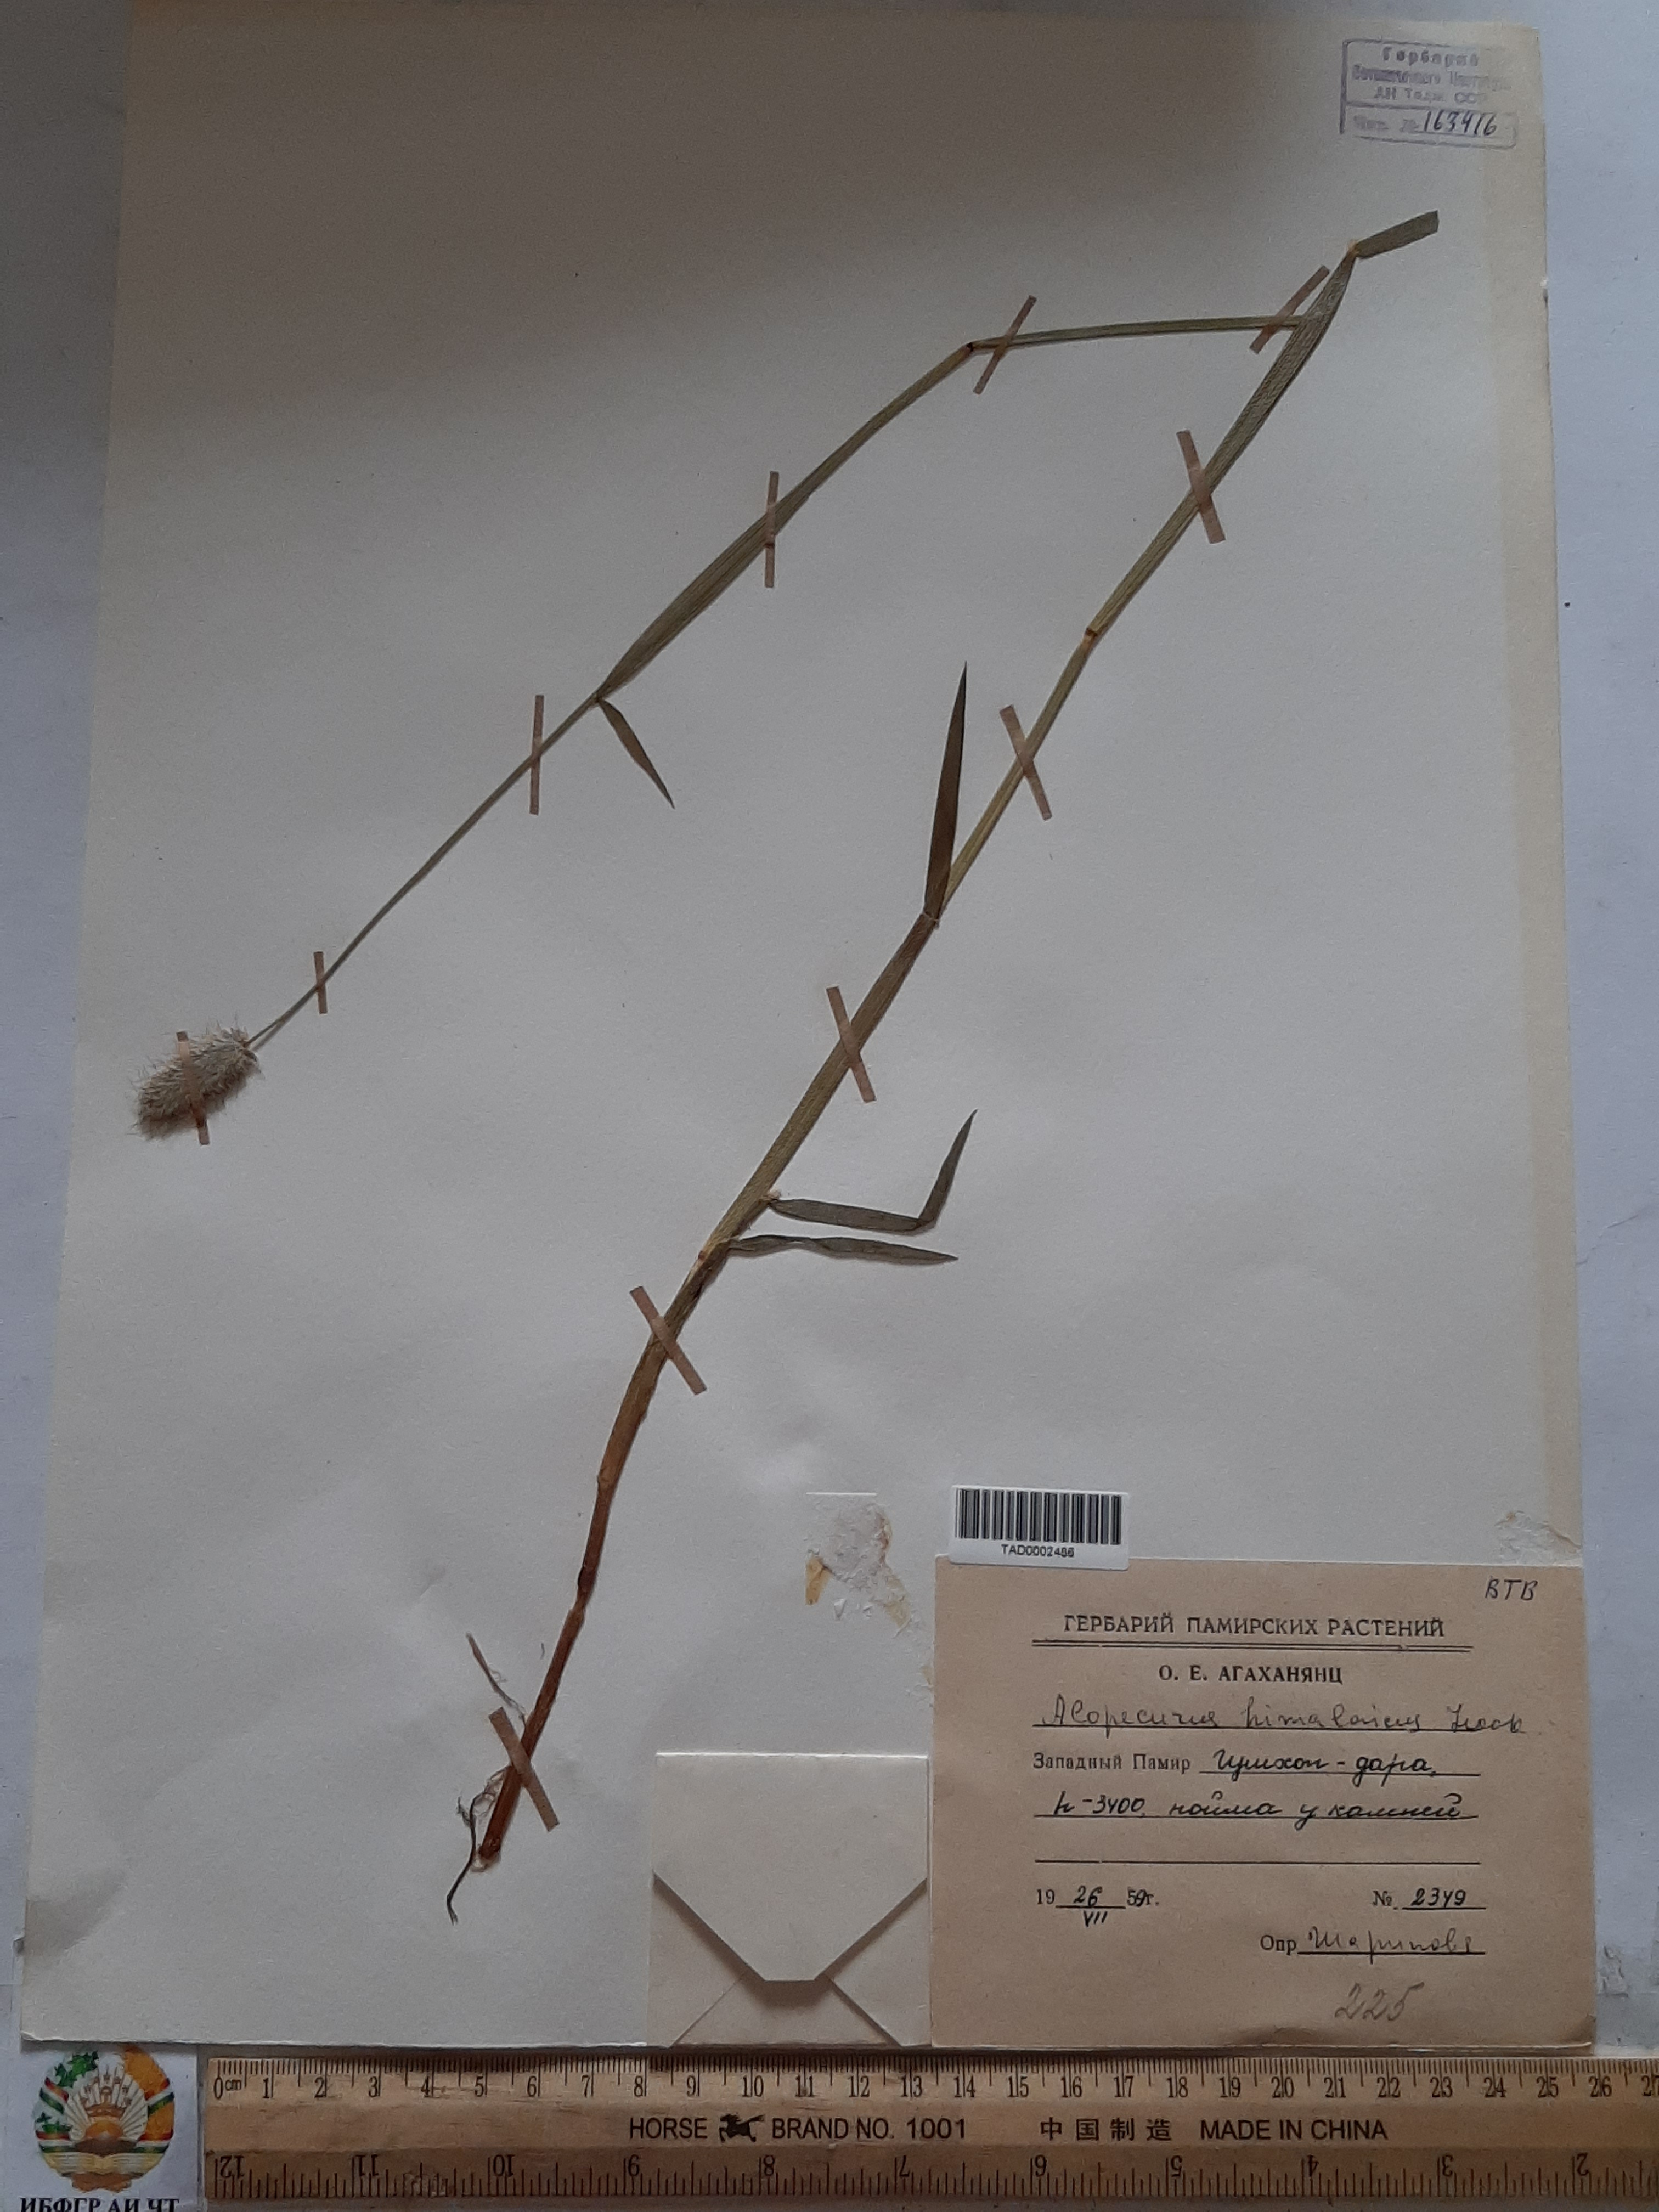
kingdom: Plantae
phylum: Tracheophyta
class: Liliopsida
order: Poales
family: Poaceae
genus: Alopecurus
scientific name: Alopecurus himalaicus
